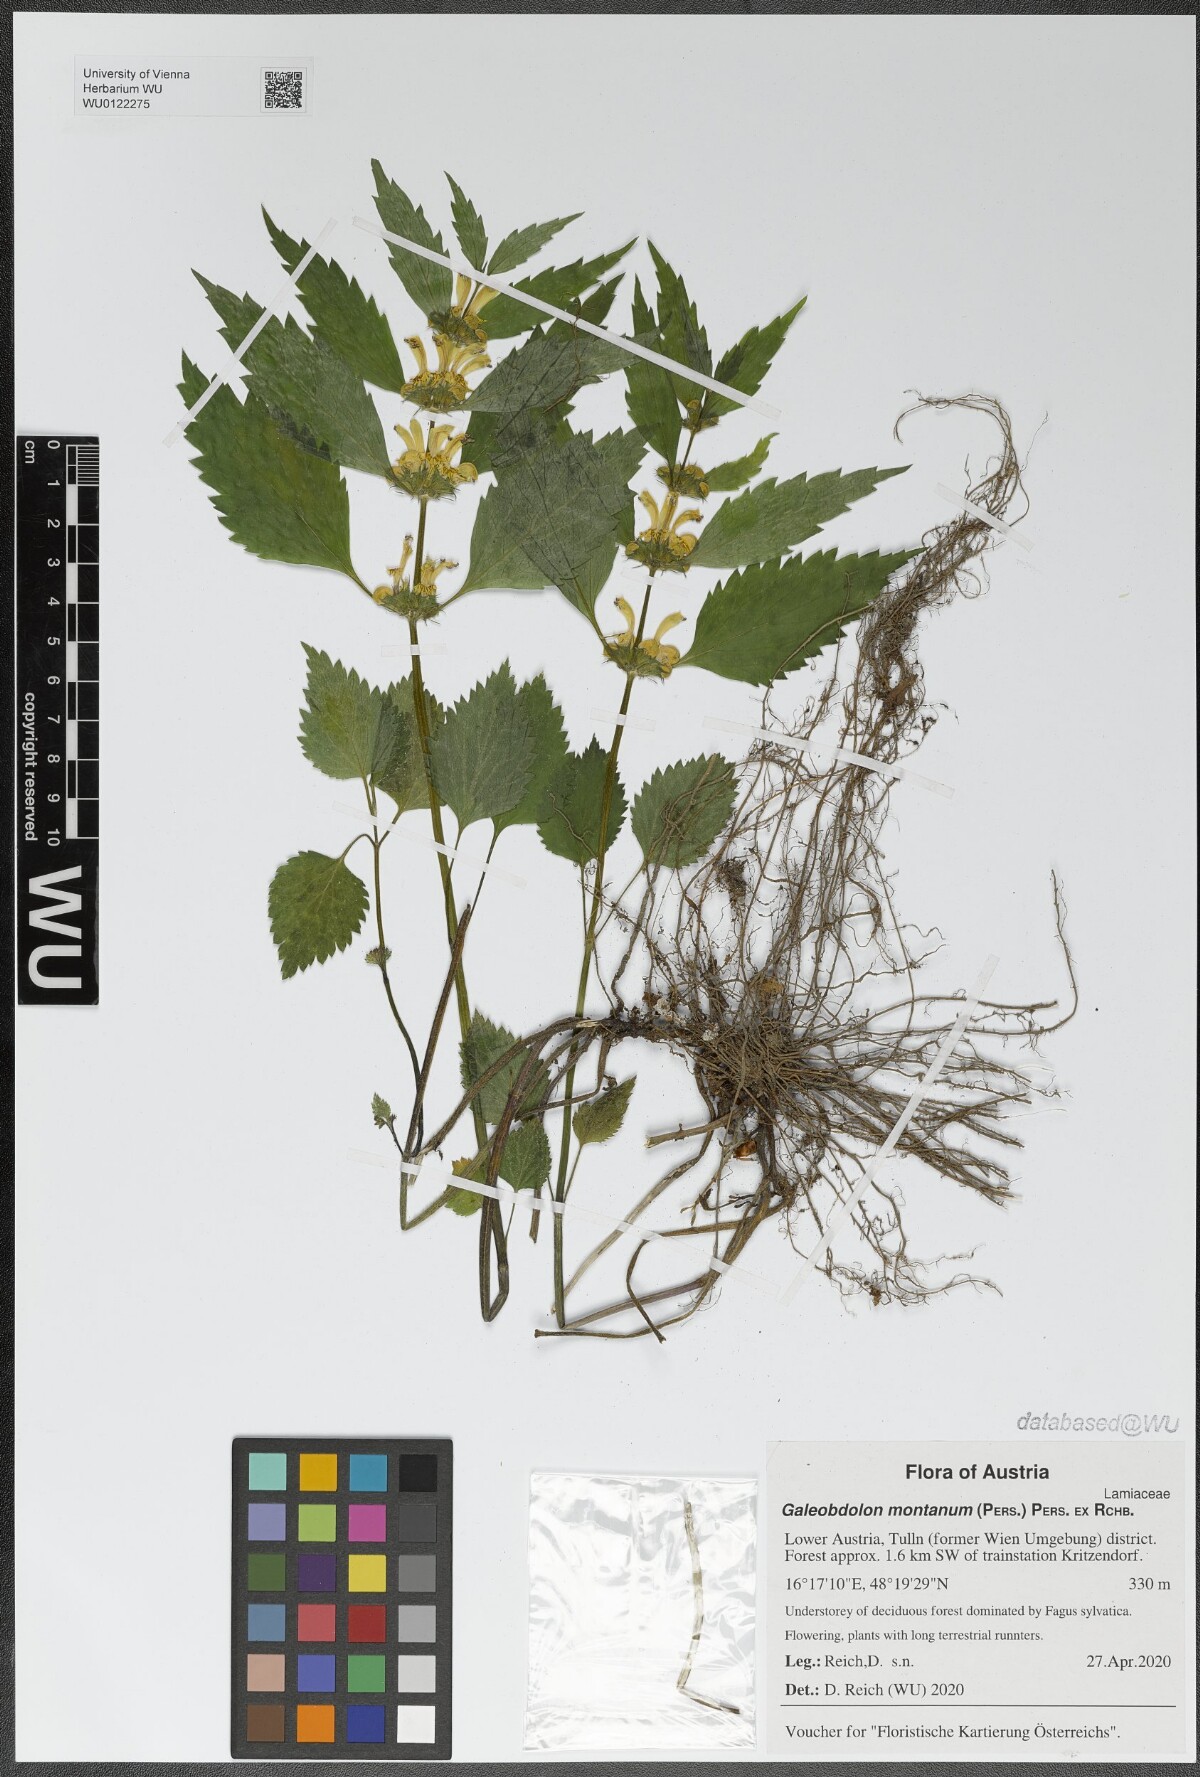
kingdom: Plantae
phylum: Tracheophyta
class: Magnoliopsida
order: Lamiales
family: Lamiaceae
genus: Lamium
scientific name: Lamium galeobdolon
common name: Yellow archangel
